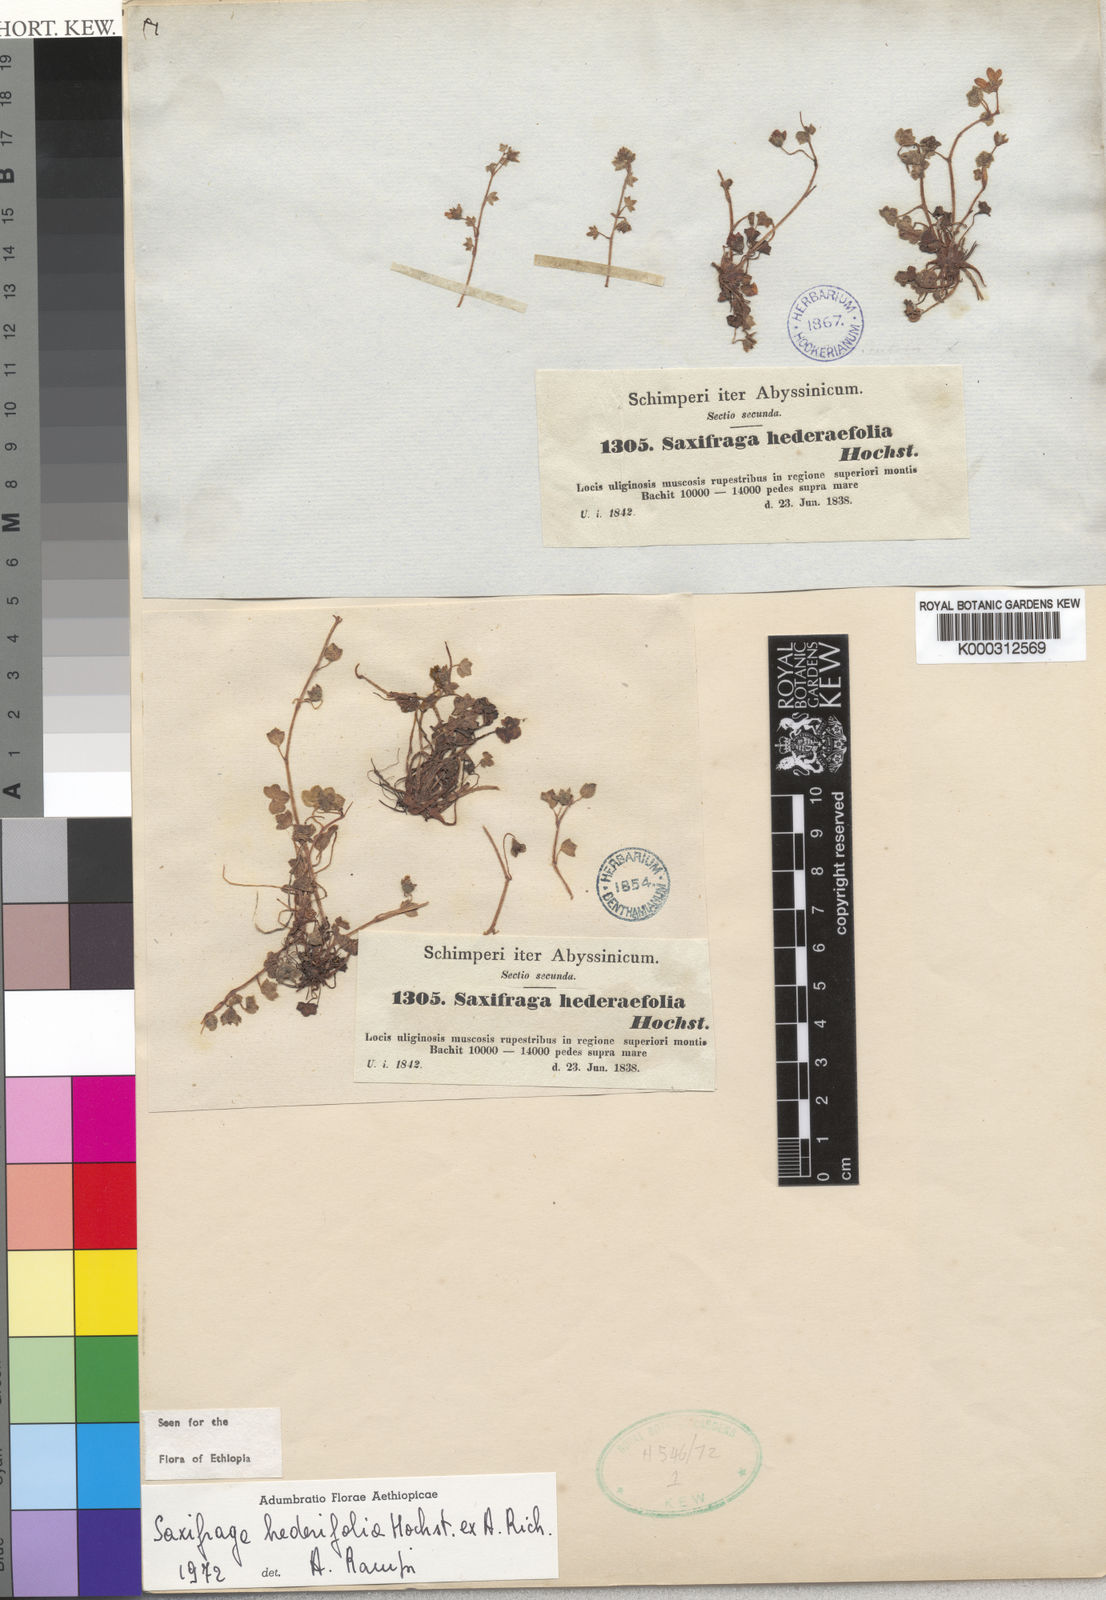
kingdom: Plantae
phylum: Tracheophyta
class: Magnoliopsida
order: Saxifragales
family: Saxifragaceae
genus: Saxifraga
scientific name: Saxifraga
